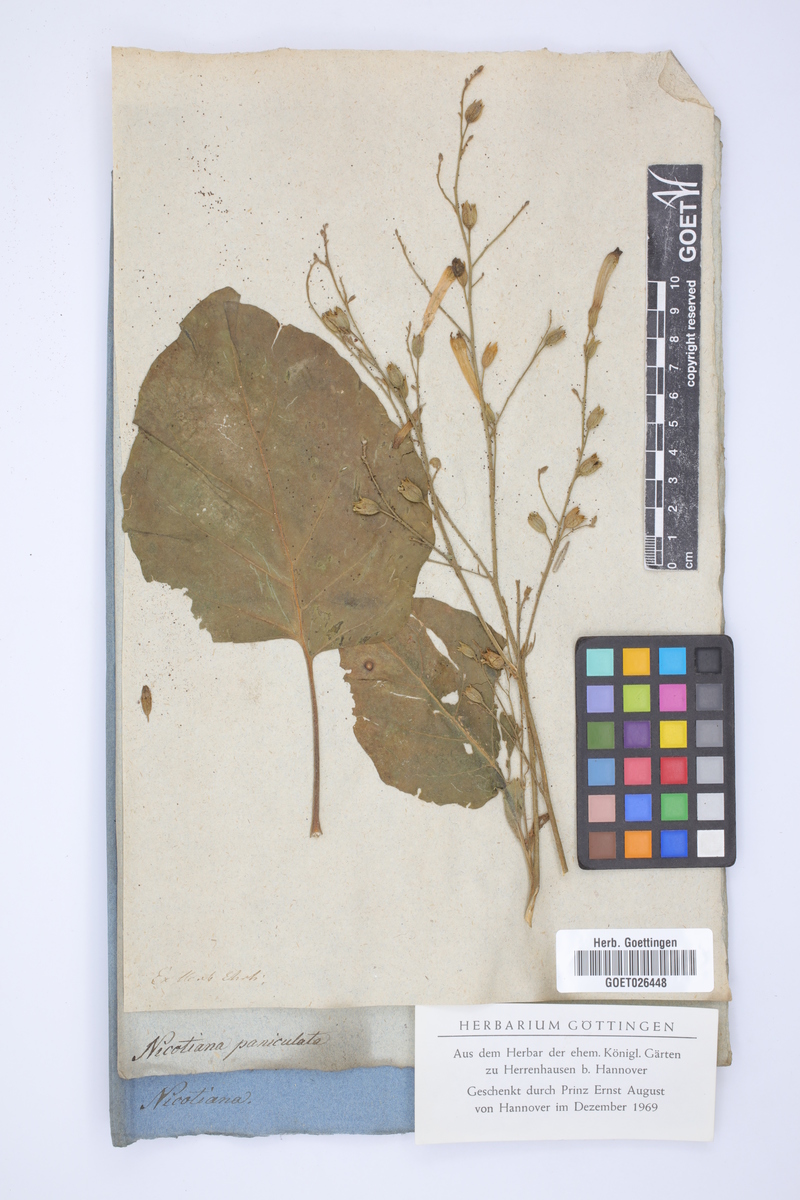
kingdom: Plantae
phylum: Tracheophyta
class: Magnoliopsida
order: Solanales
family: Solanaceae
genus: Nicotiana
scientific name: Nicotiana paniculata
